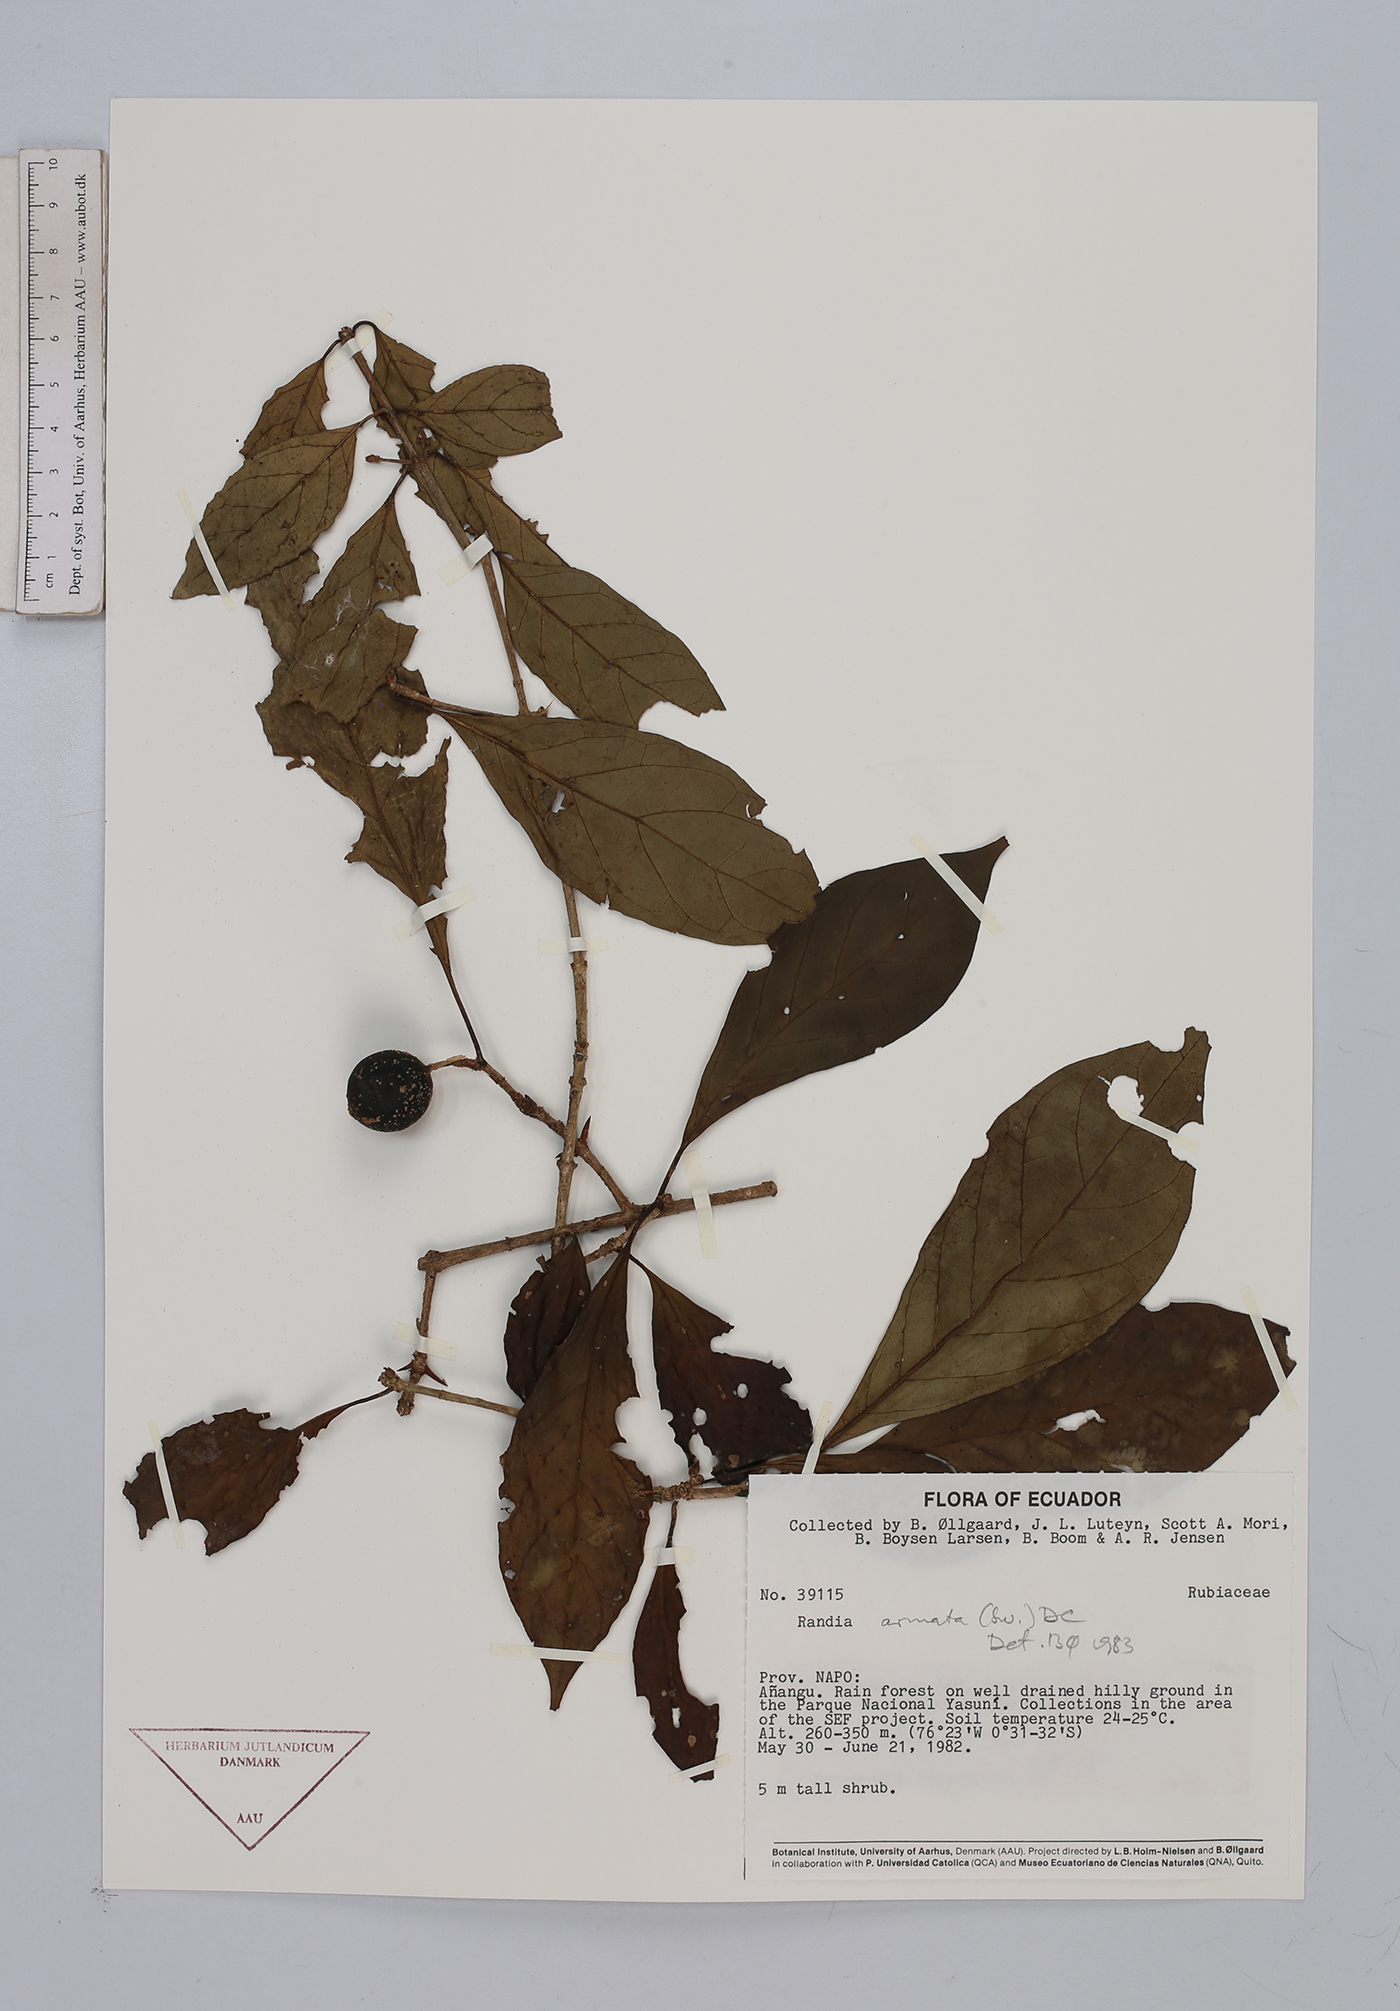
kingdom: Plantae
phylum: Tracheophyta
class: Magnoliopsida
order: Gentianales
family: Rubiaceae
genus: Randia
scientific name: Randia armata
